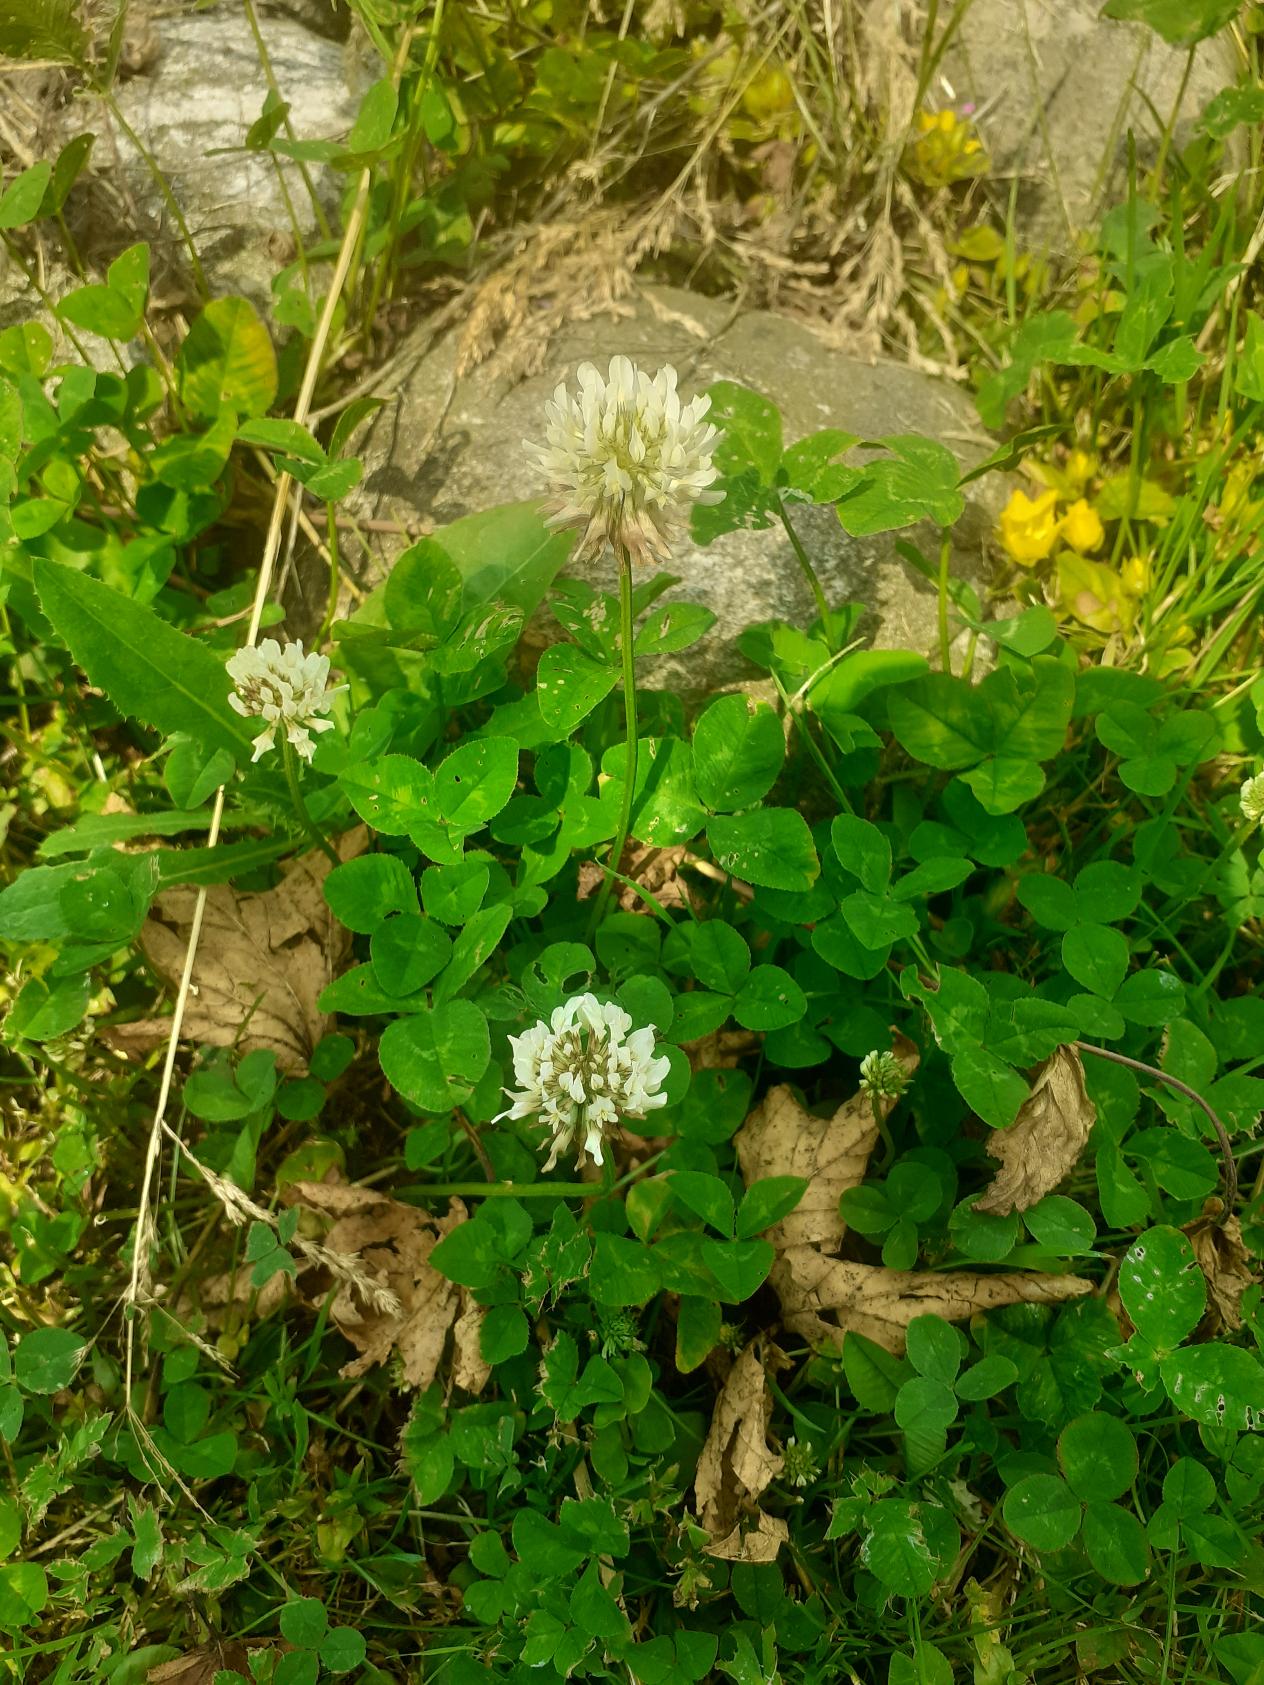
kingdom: Plantae
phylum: Tracheophyta
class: Magnoliopsida
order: Fabales
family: Fabaceae
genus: Trifolium
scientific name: Trifolium repens
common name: Hvid-kløver
